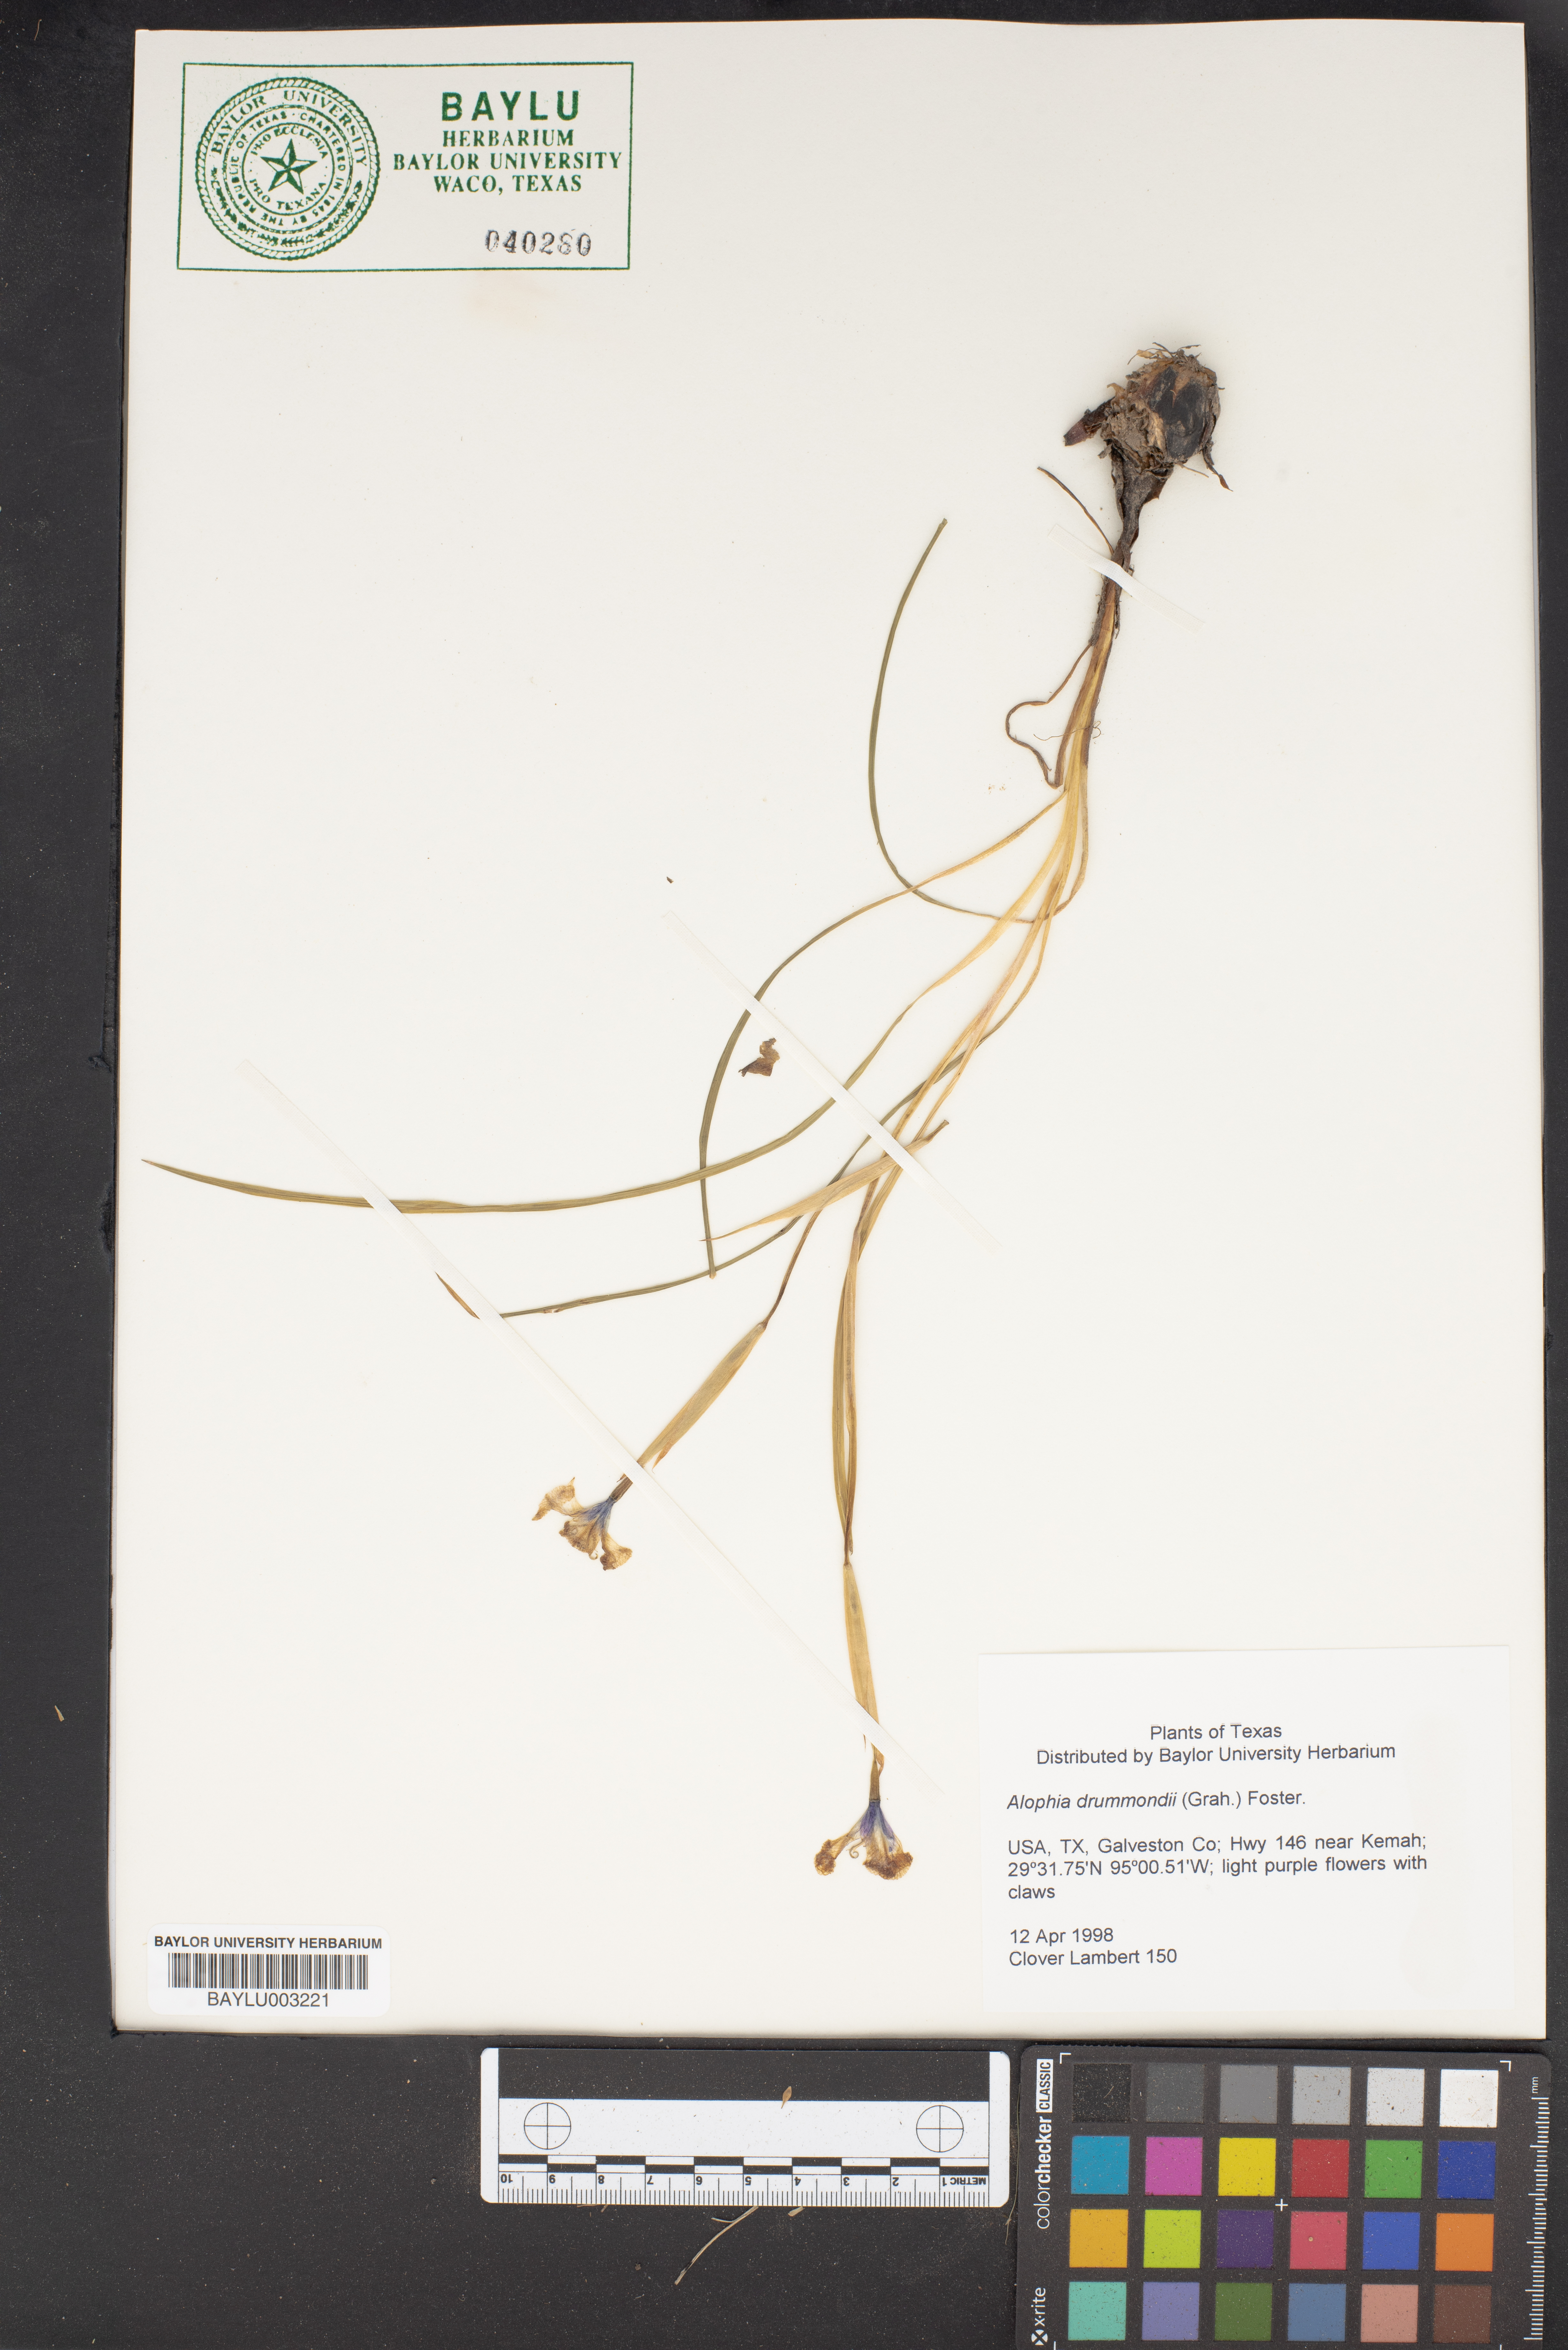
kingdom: Plantae
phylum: Tracheophyta
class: Liliopsida
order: Asparagales
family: Iridaceae
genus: Alophia
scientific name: Alophia drummondii
